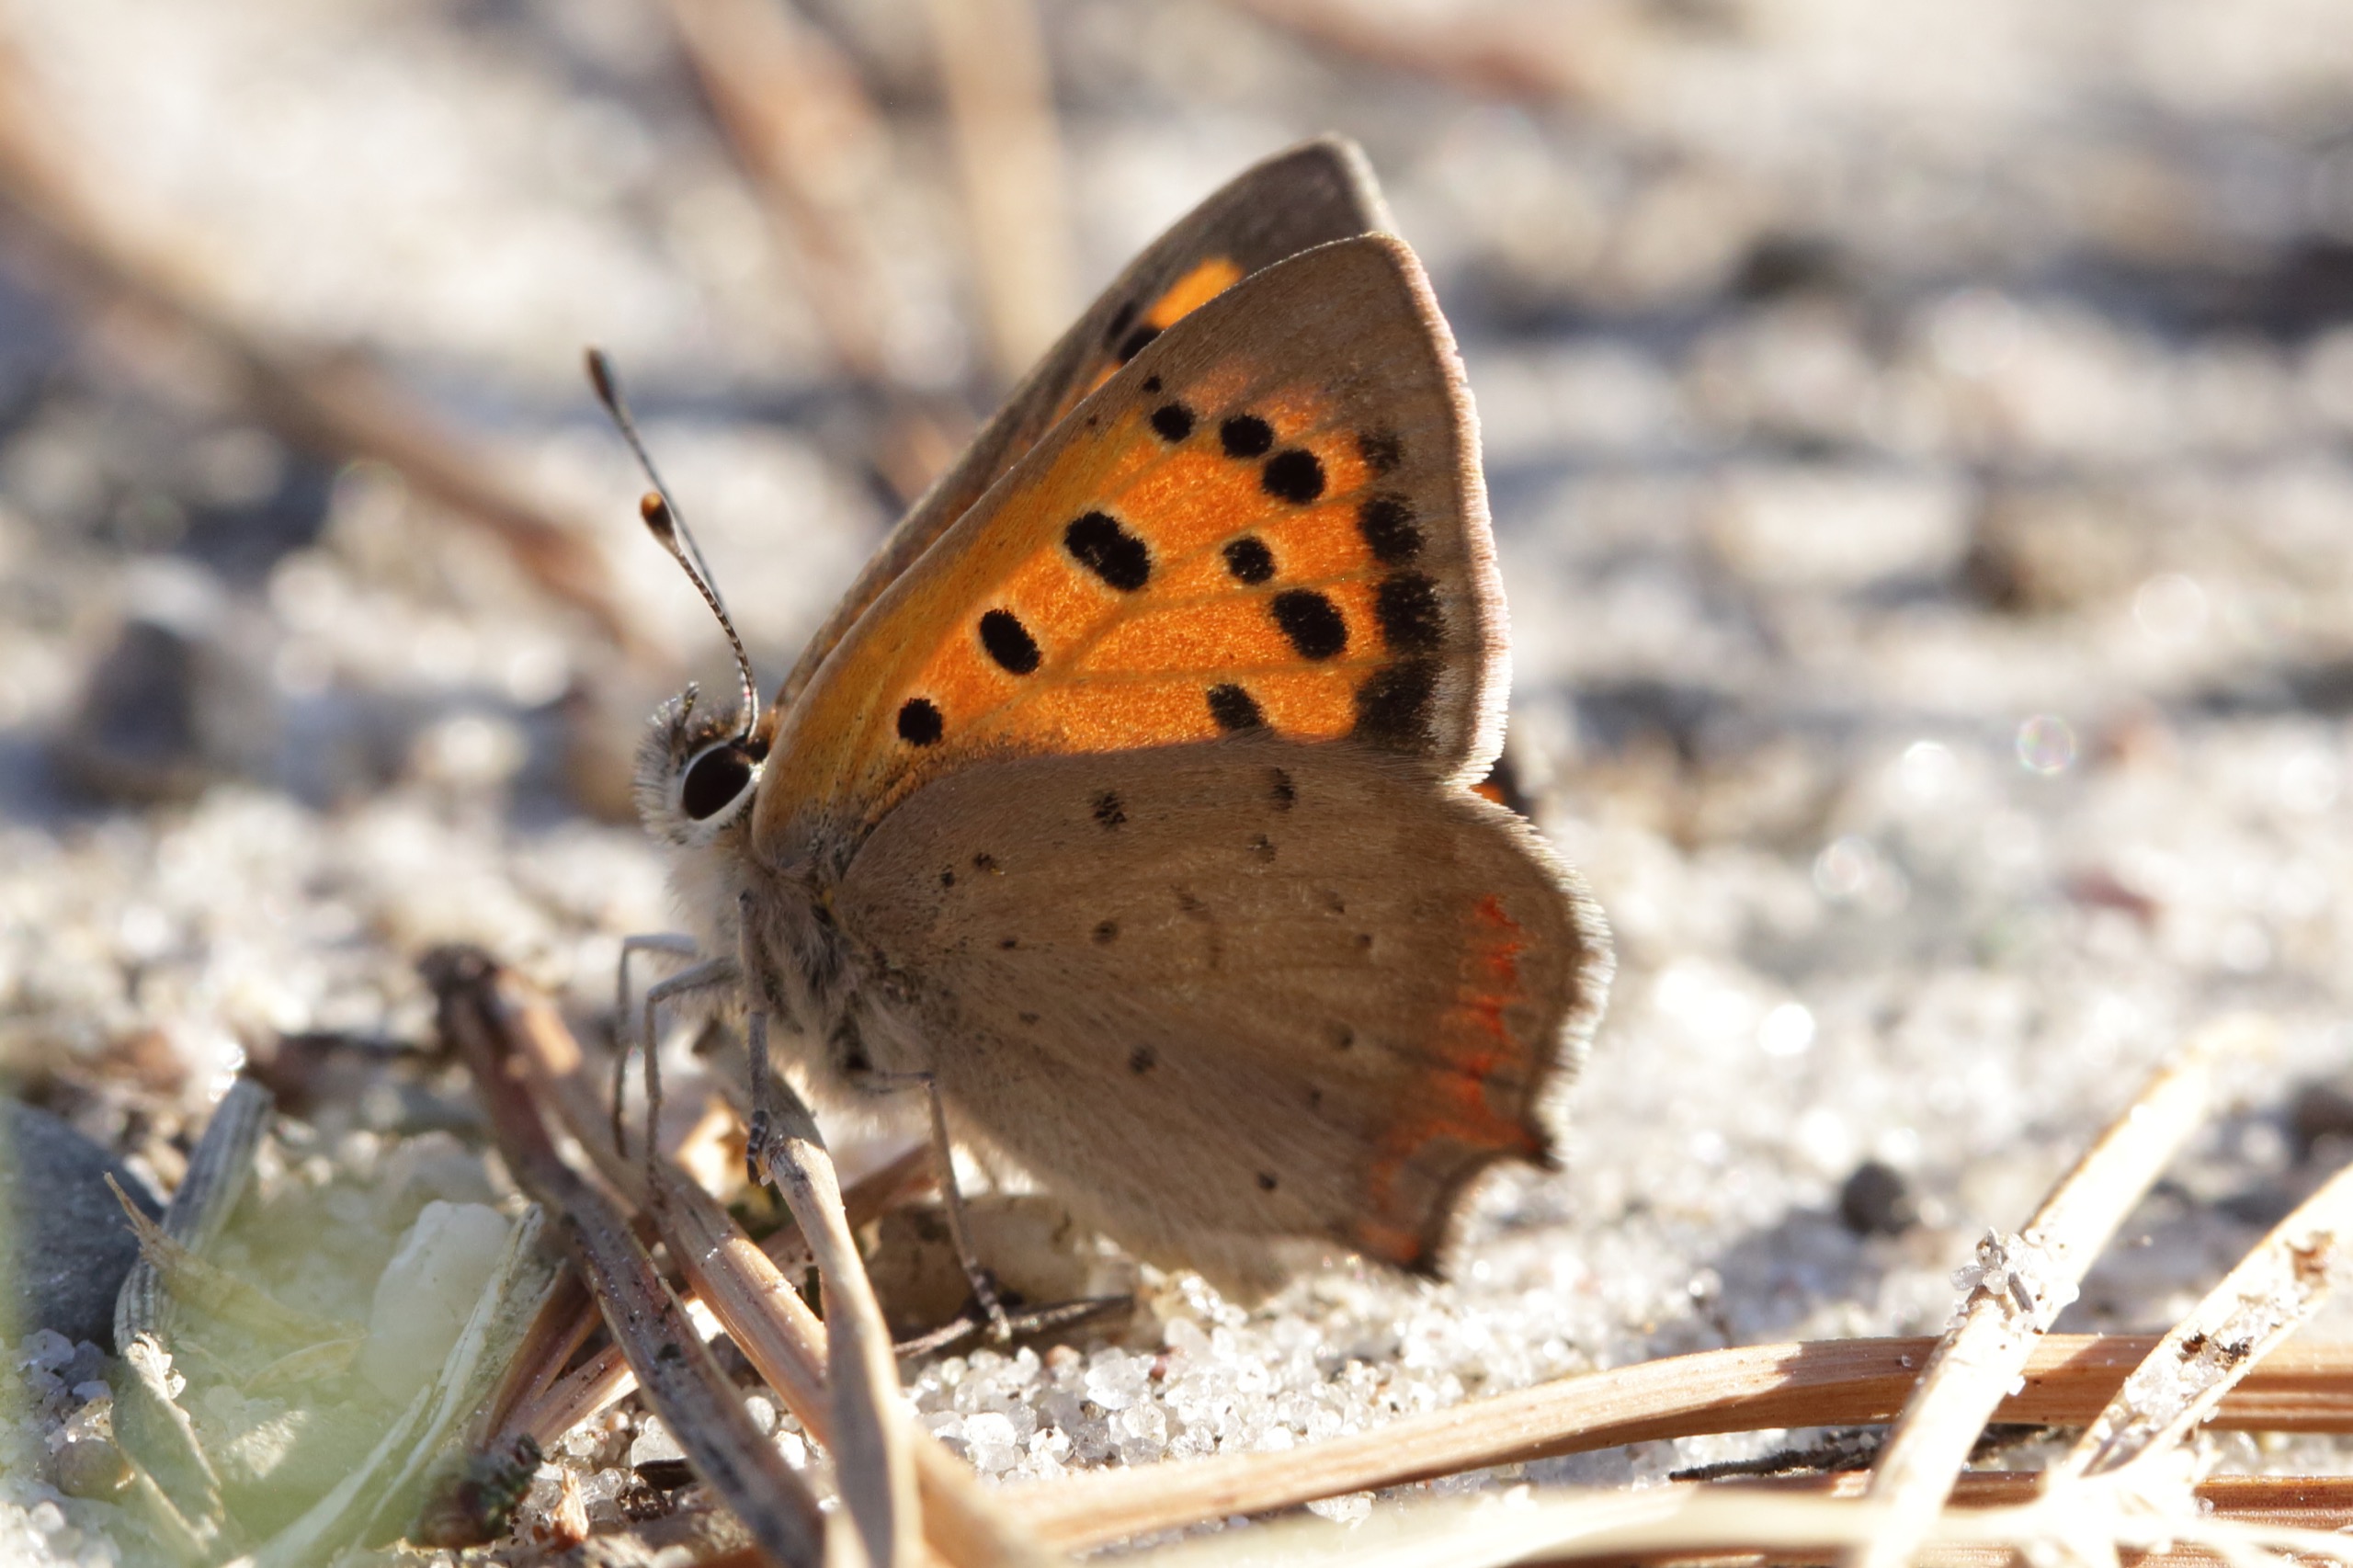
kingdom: Animalia
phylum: Arthropoda
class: Insecta
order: Lepidoptera
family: Lycaenidae
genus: Lycaena
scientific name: Lycaena phlaeas
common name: Lille ildfugl
